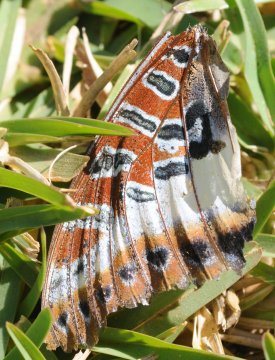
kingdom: Animalia
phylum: Arthropoda
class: Insecta
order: Lepidoptera
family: Nymphalidae
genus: Charaxes
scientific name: Charaxes brutus
